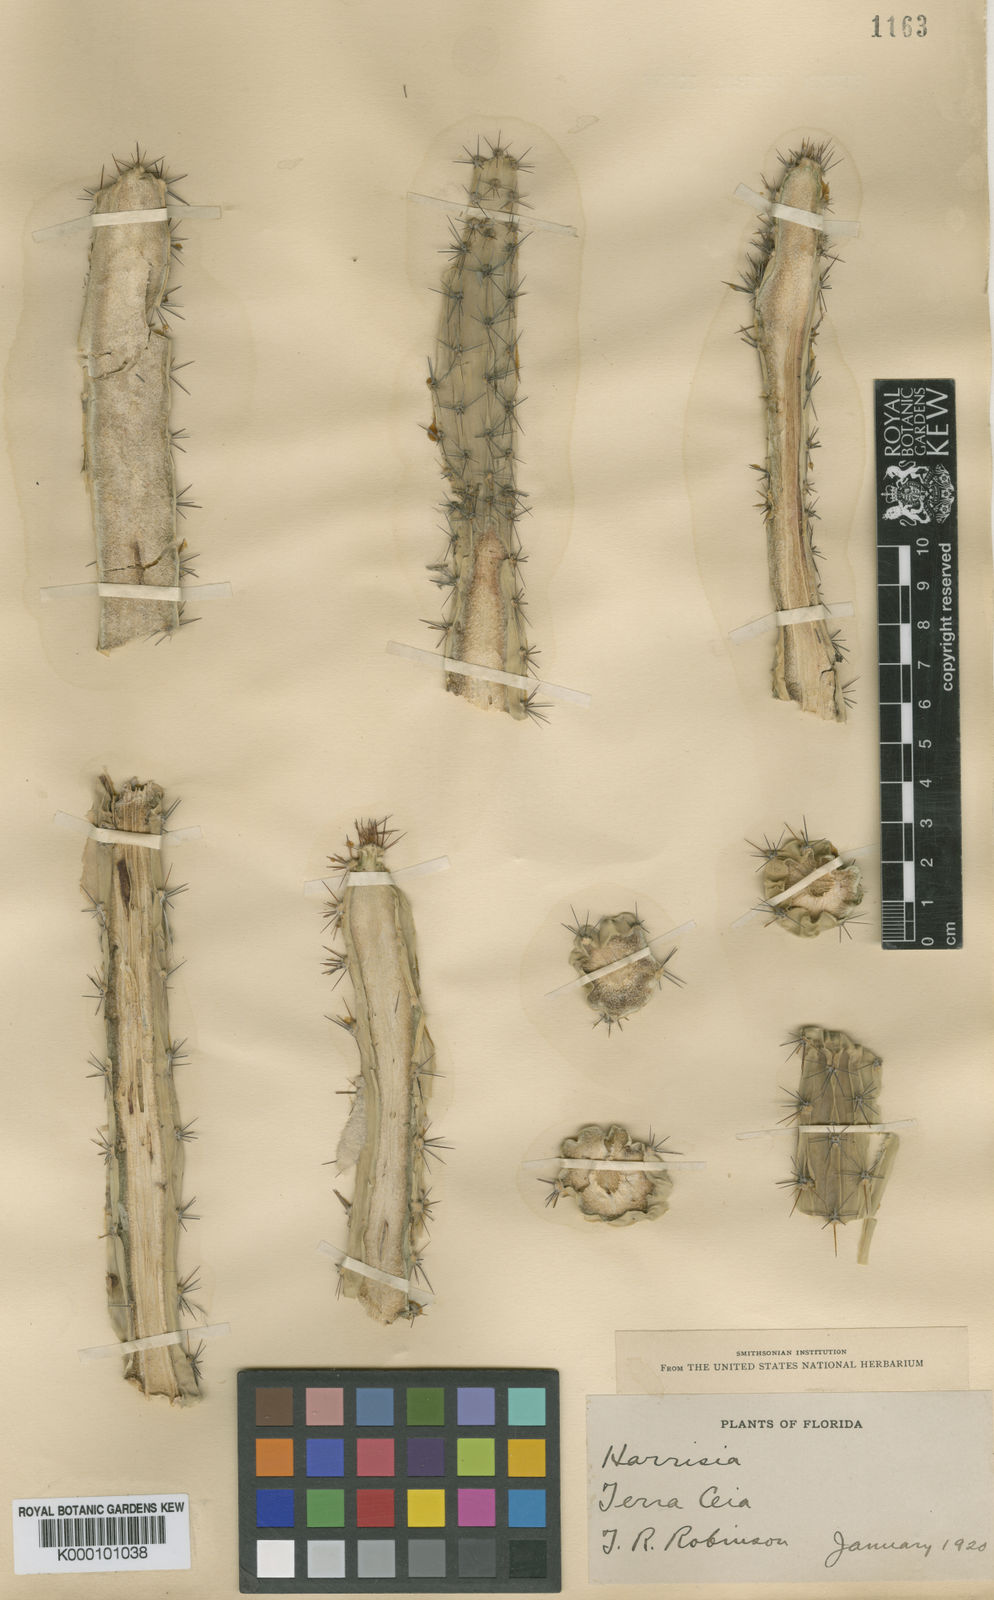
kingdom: Plantae
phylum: Tracheophyta
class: Magnoliopsida
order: Caryophyllales
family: Cactaceae
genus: Harrisia
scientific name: Harrisia
